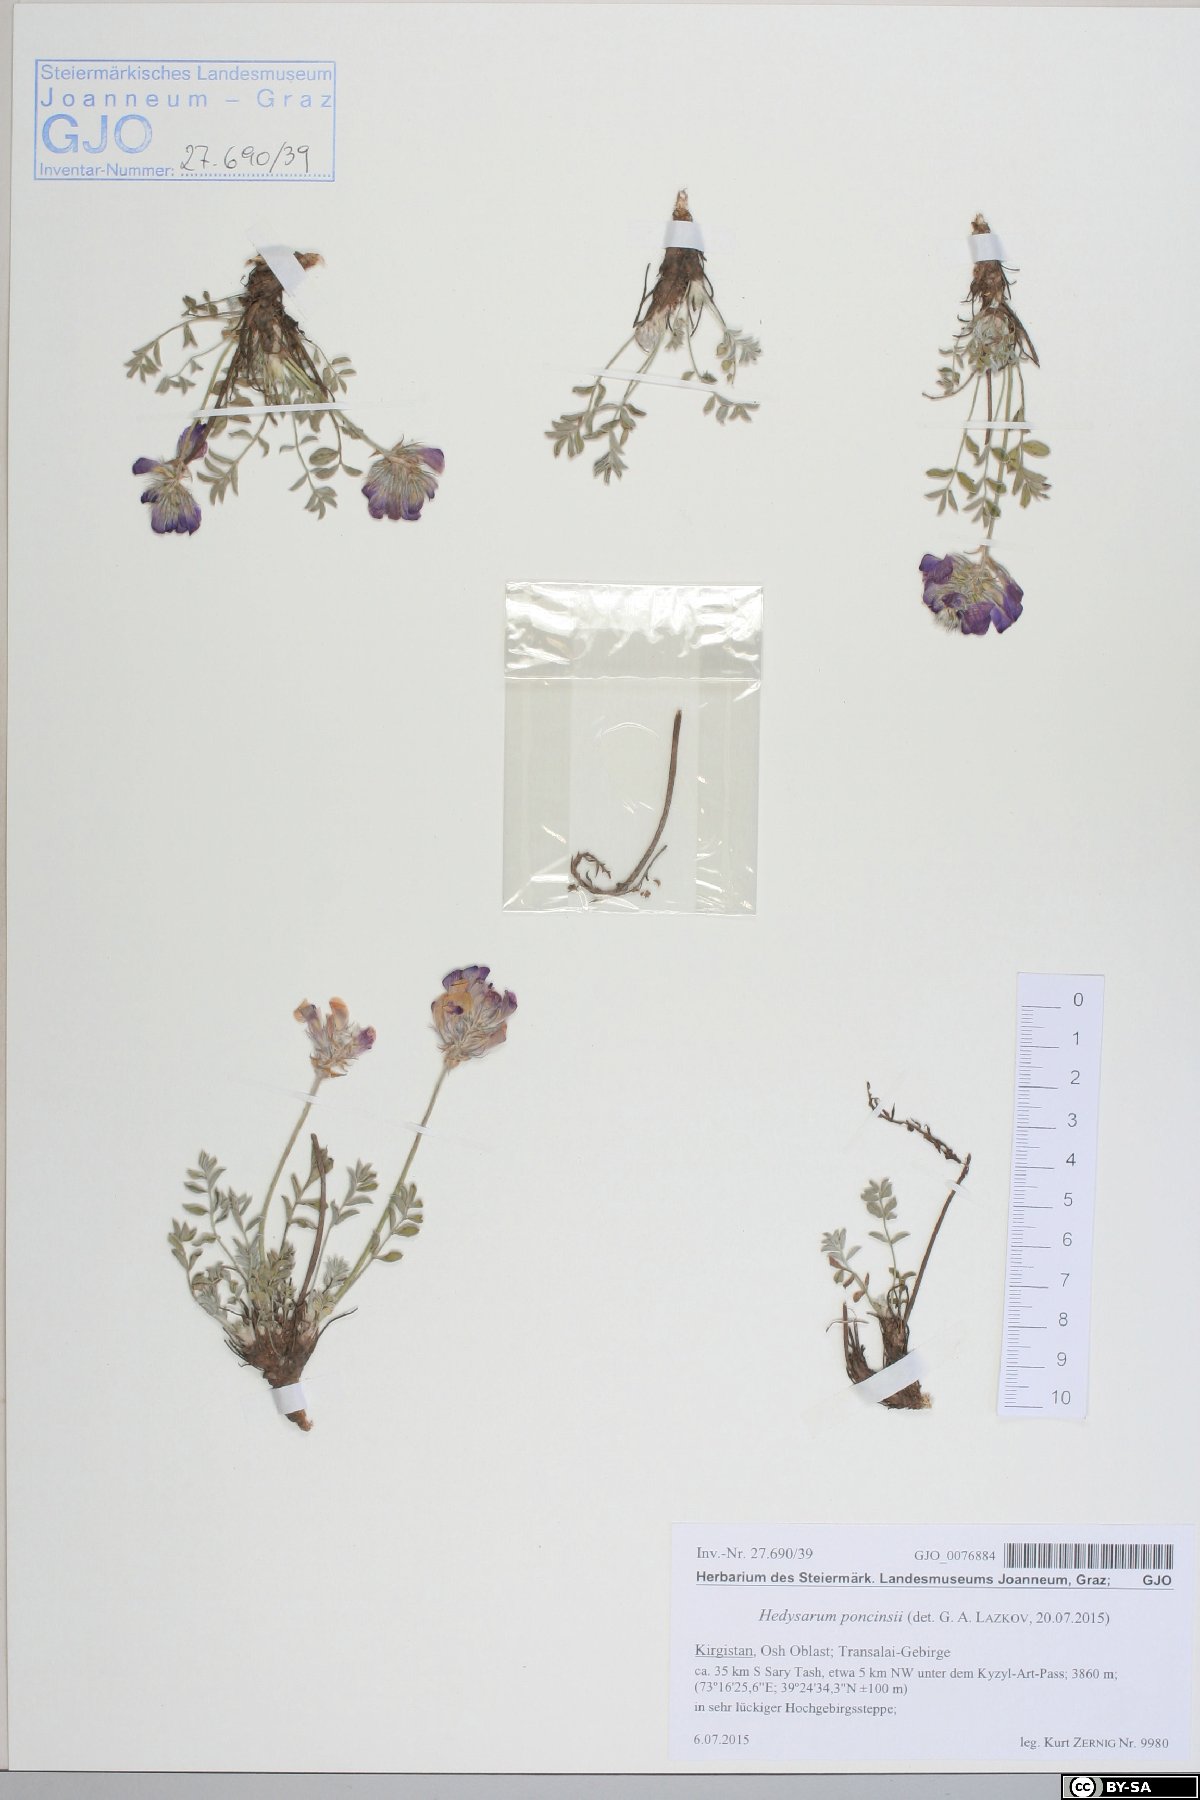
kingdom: Plantae
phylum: Tracheophyta
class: Magnoliopsida
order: Fabales
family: Fabaceae
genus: Hedysarum
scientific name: Hedysarum poncinsii
